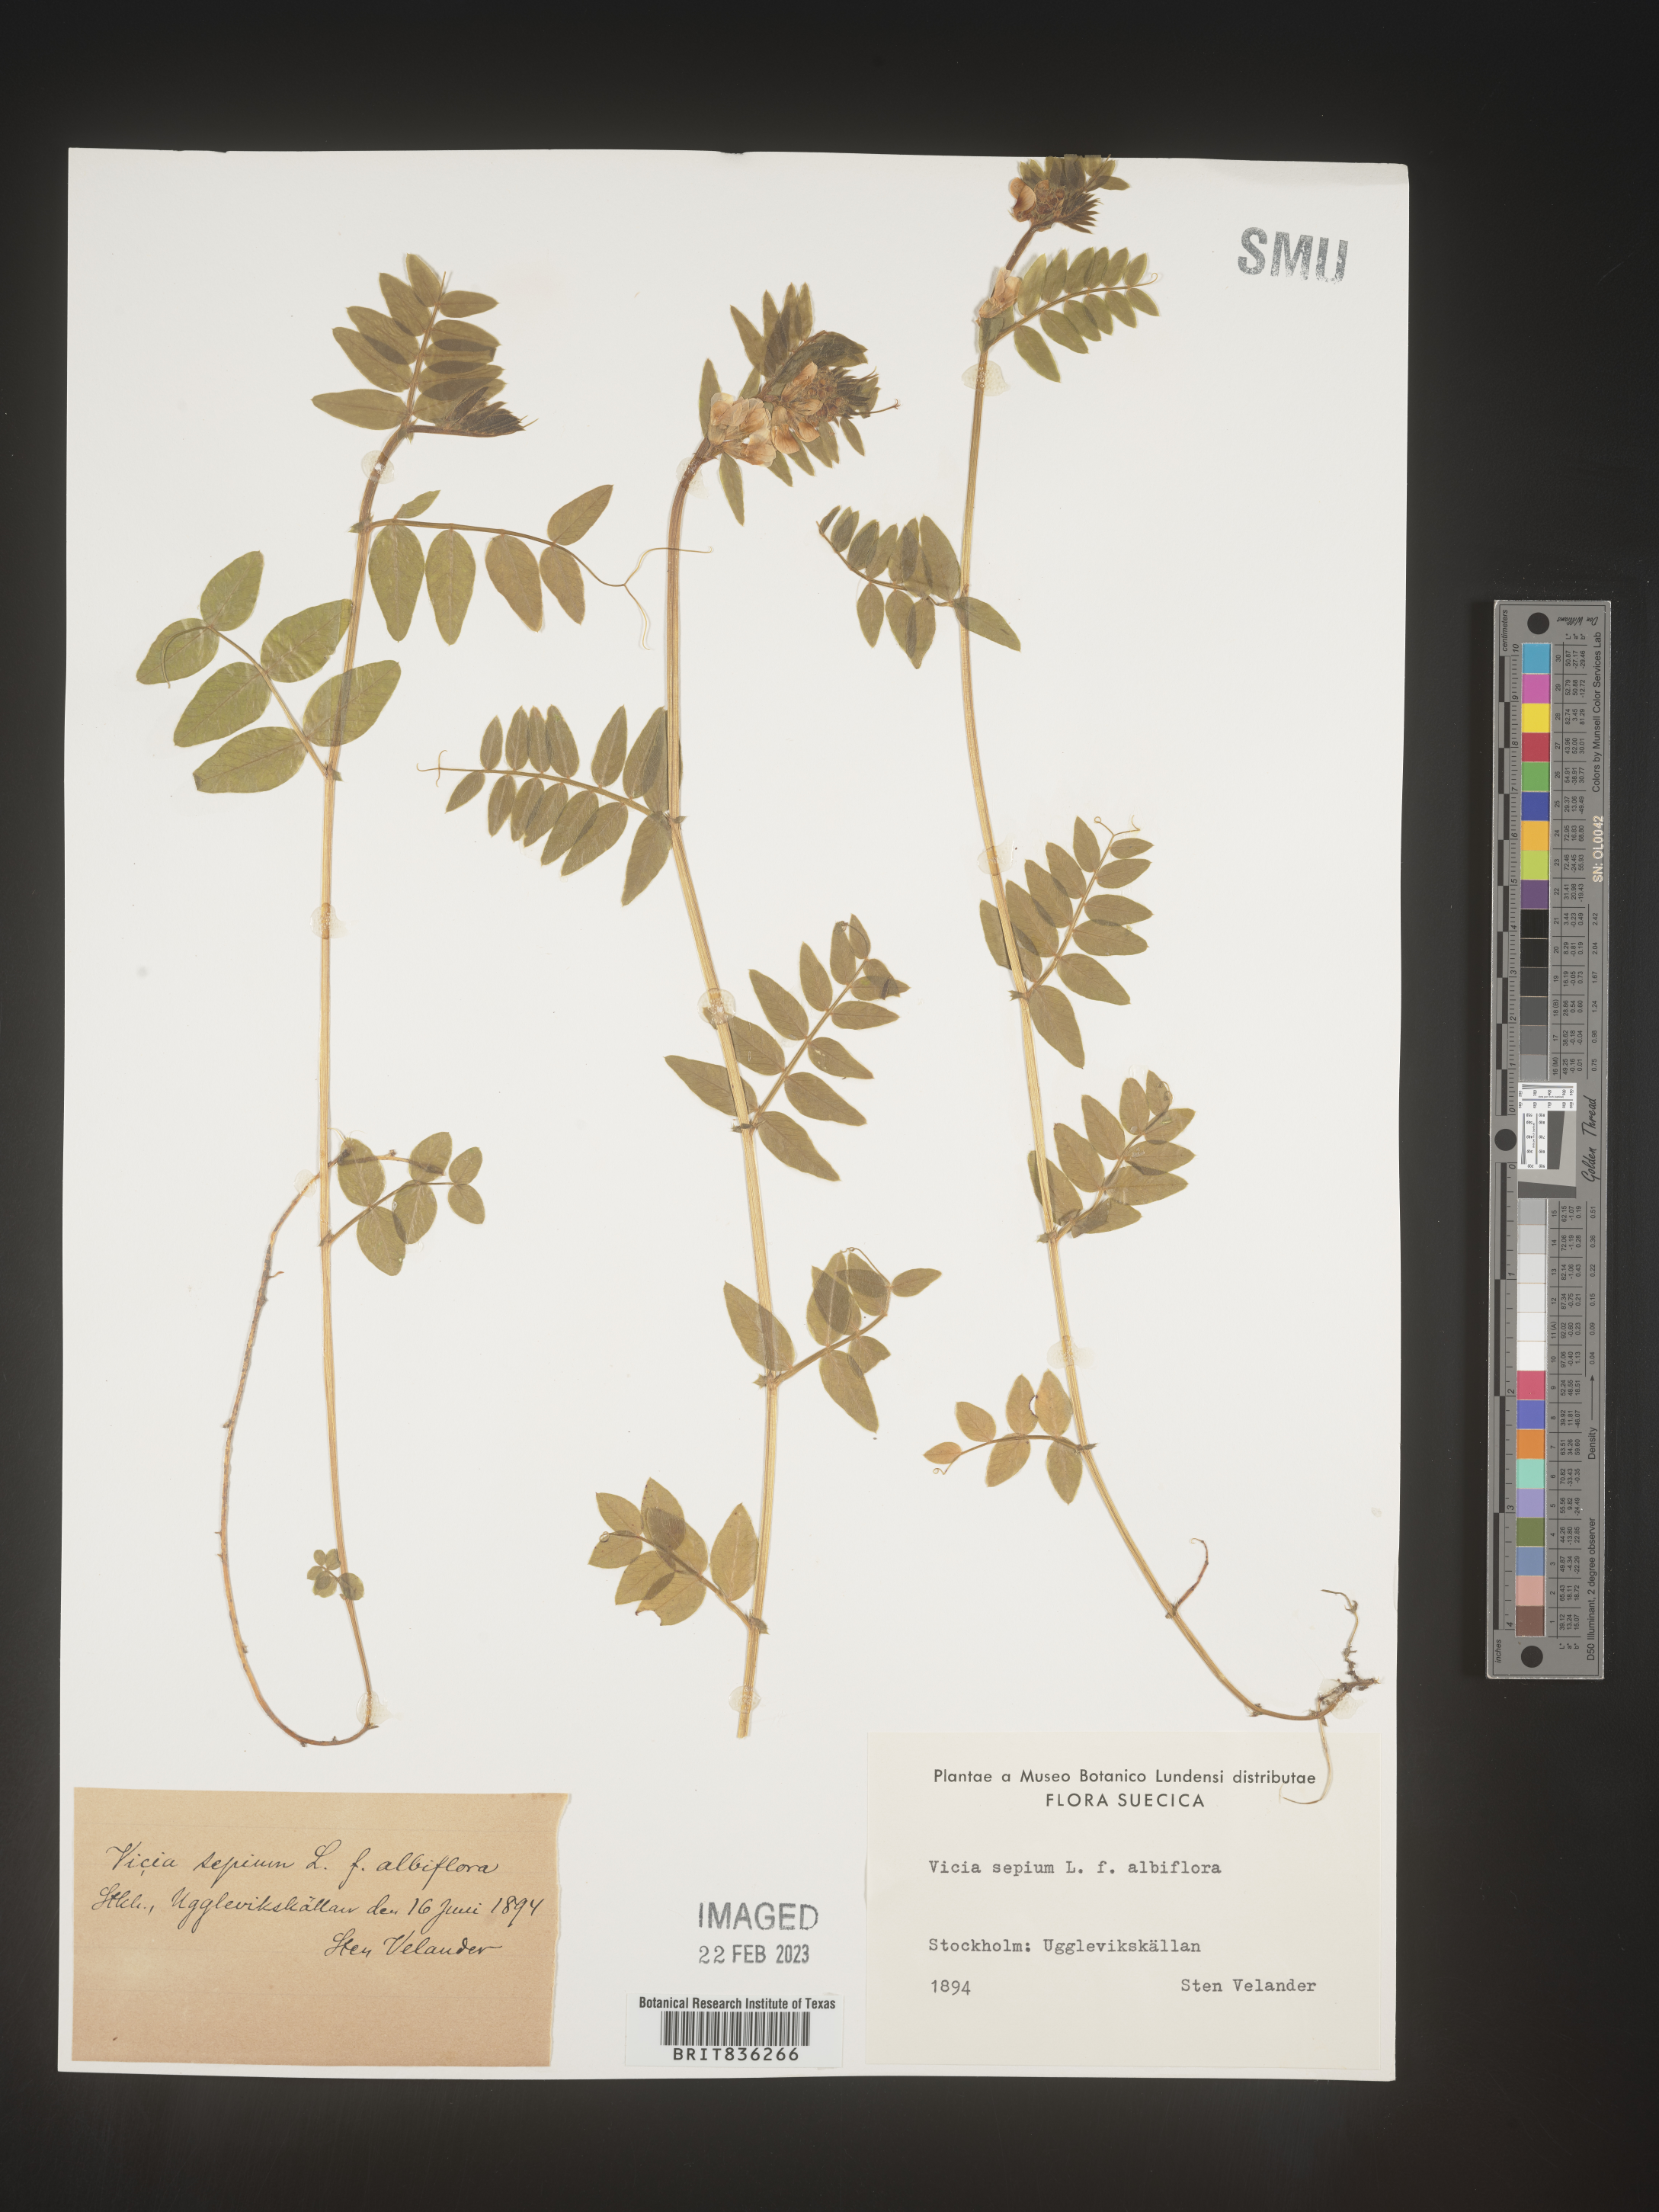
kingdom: Plantae
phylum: Tracheophyta
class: Magnoliopsida
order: Fabales
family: Fabaceae
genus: Vicia
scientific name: Vicia
